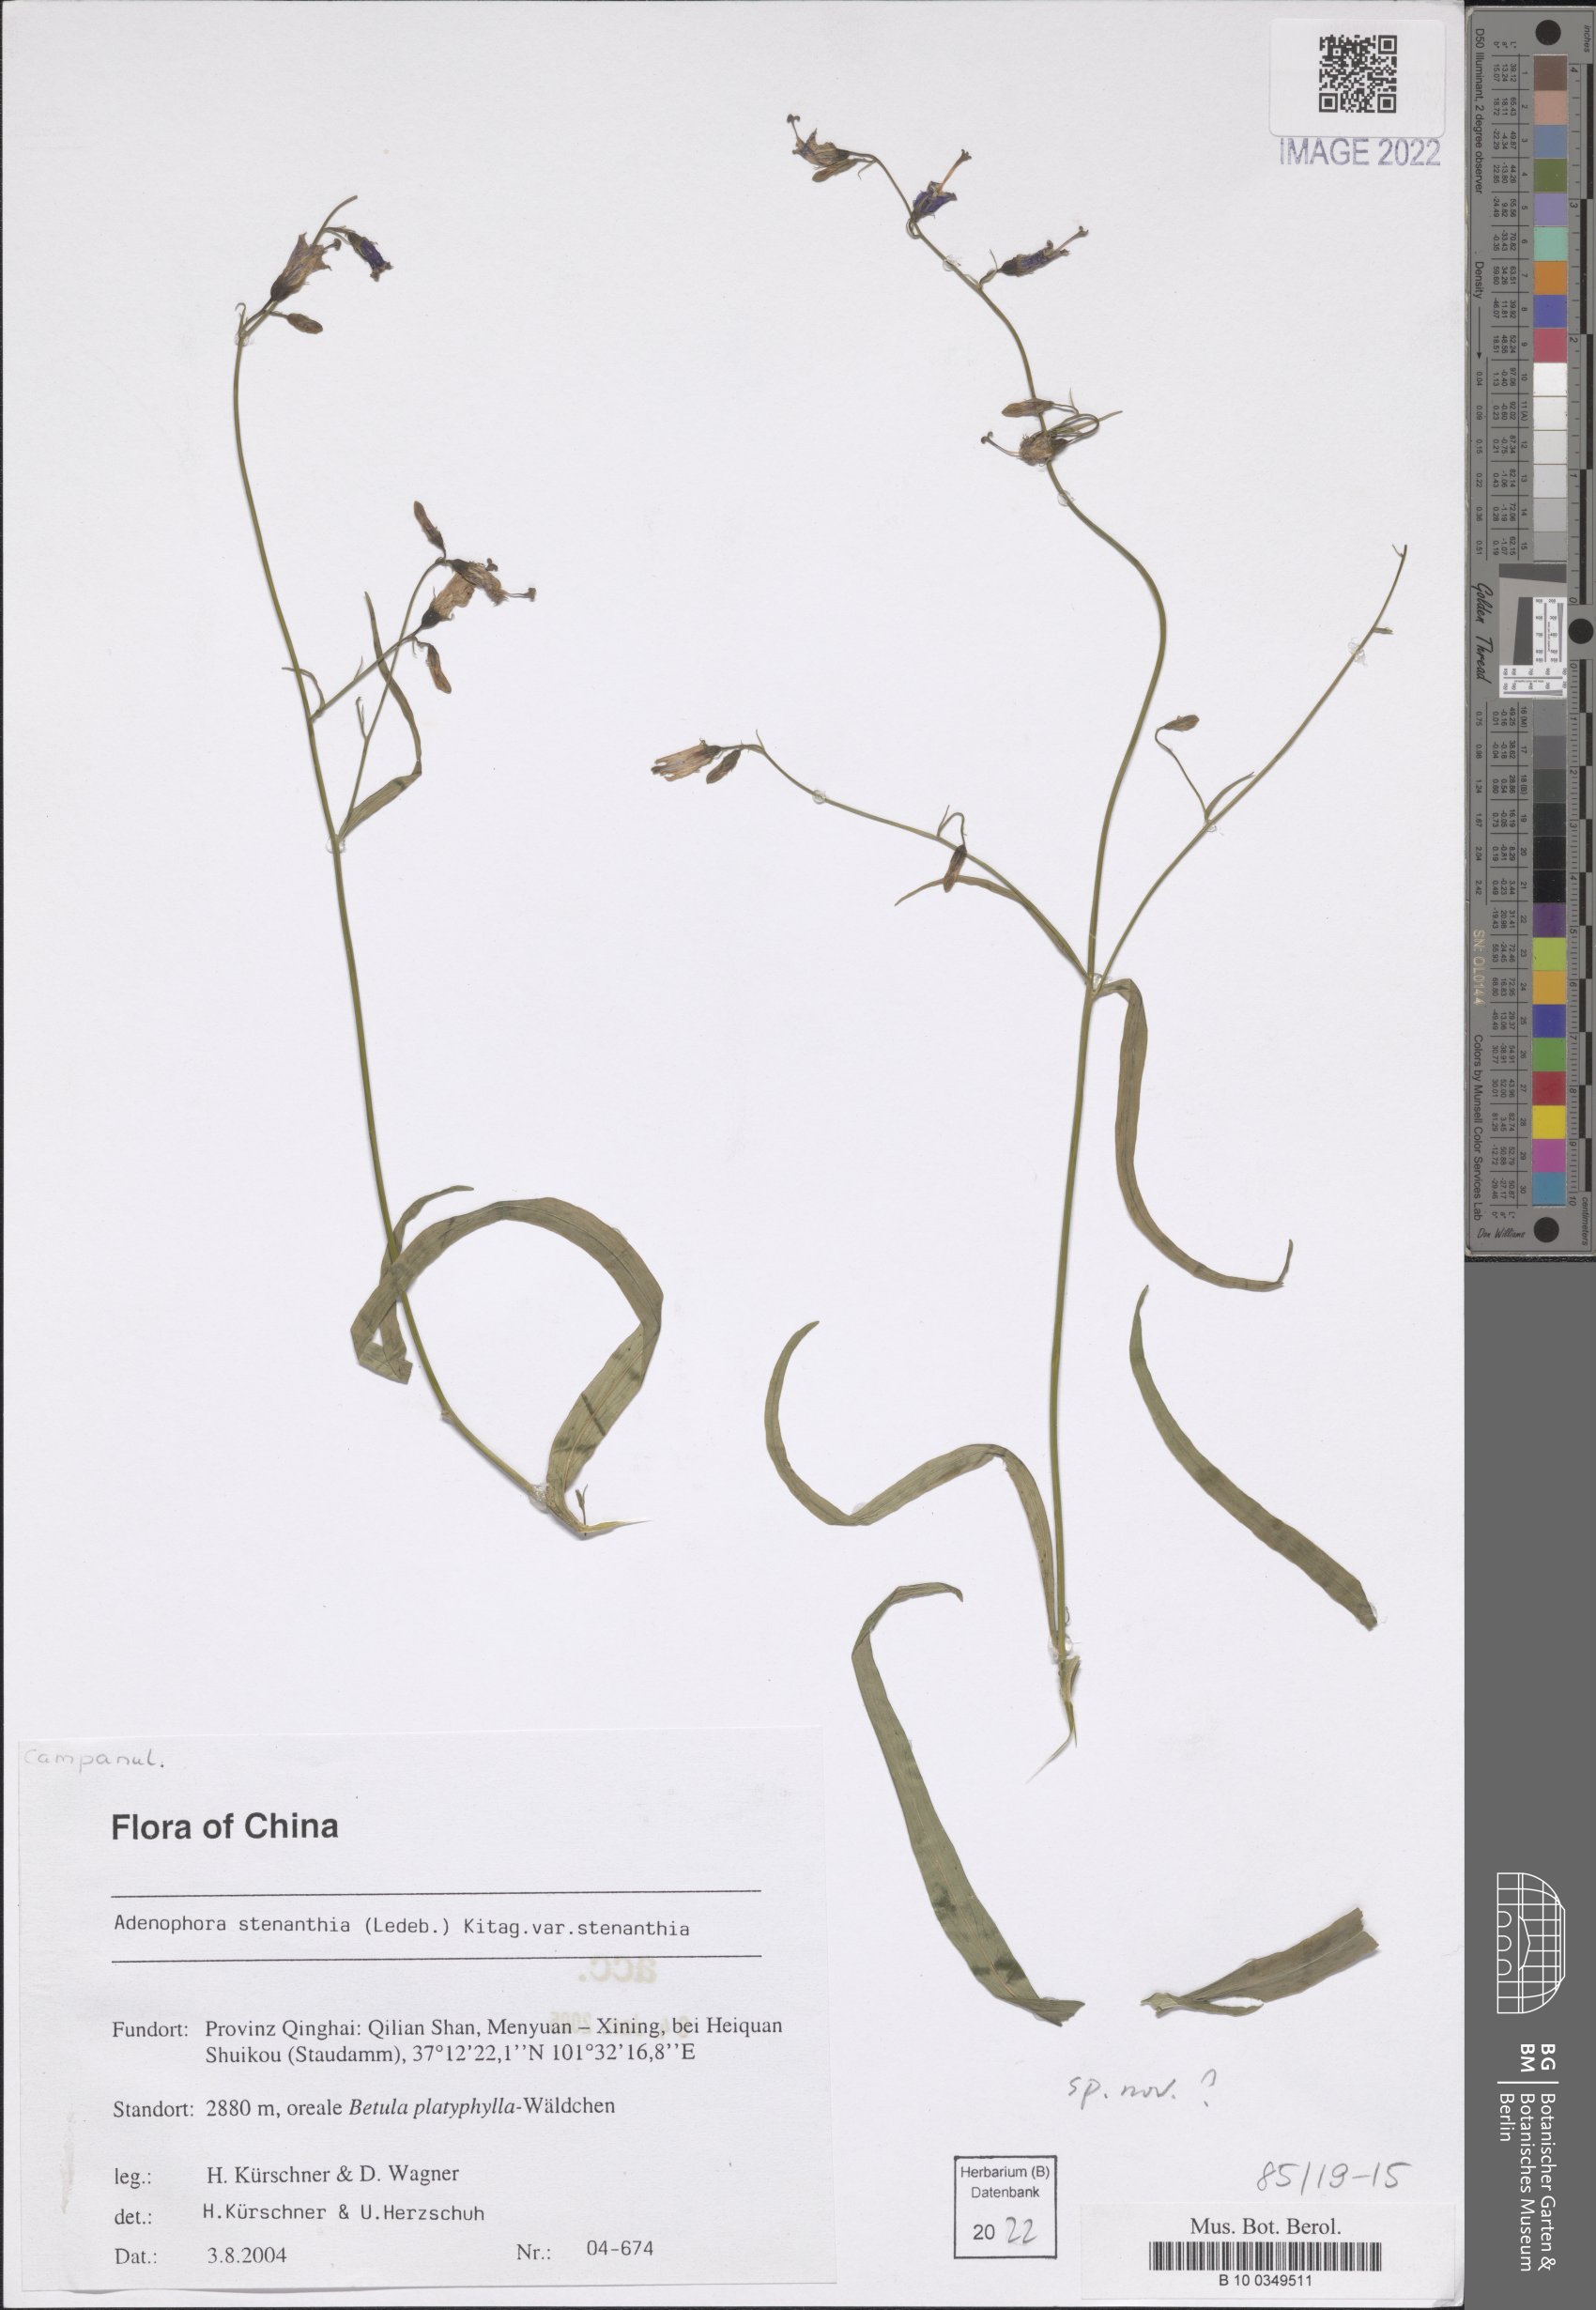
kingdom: Plantae
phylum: Tracheophyta
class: Magnoliopsida
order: Asterales
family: Campanulaceae
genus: Adenophora
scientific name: Adenophora stenanthina
